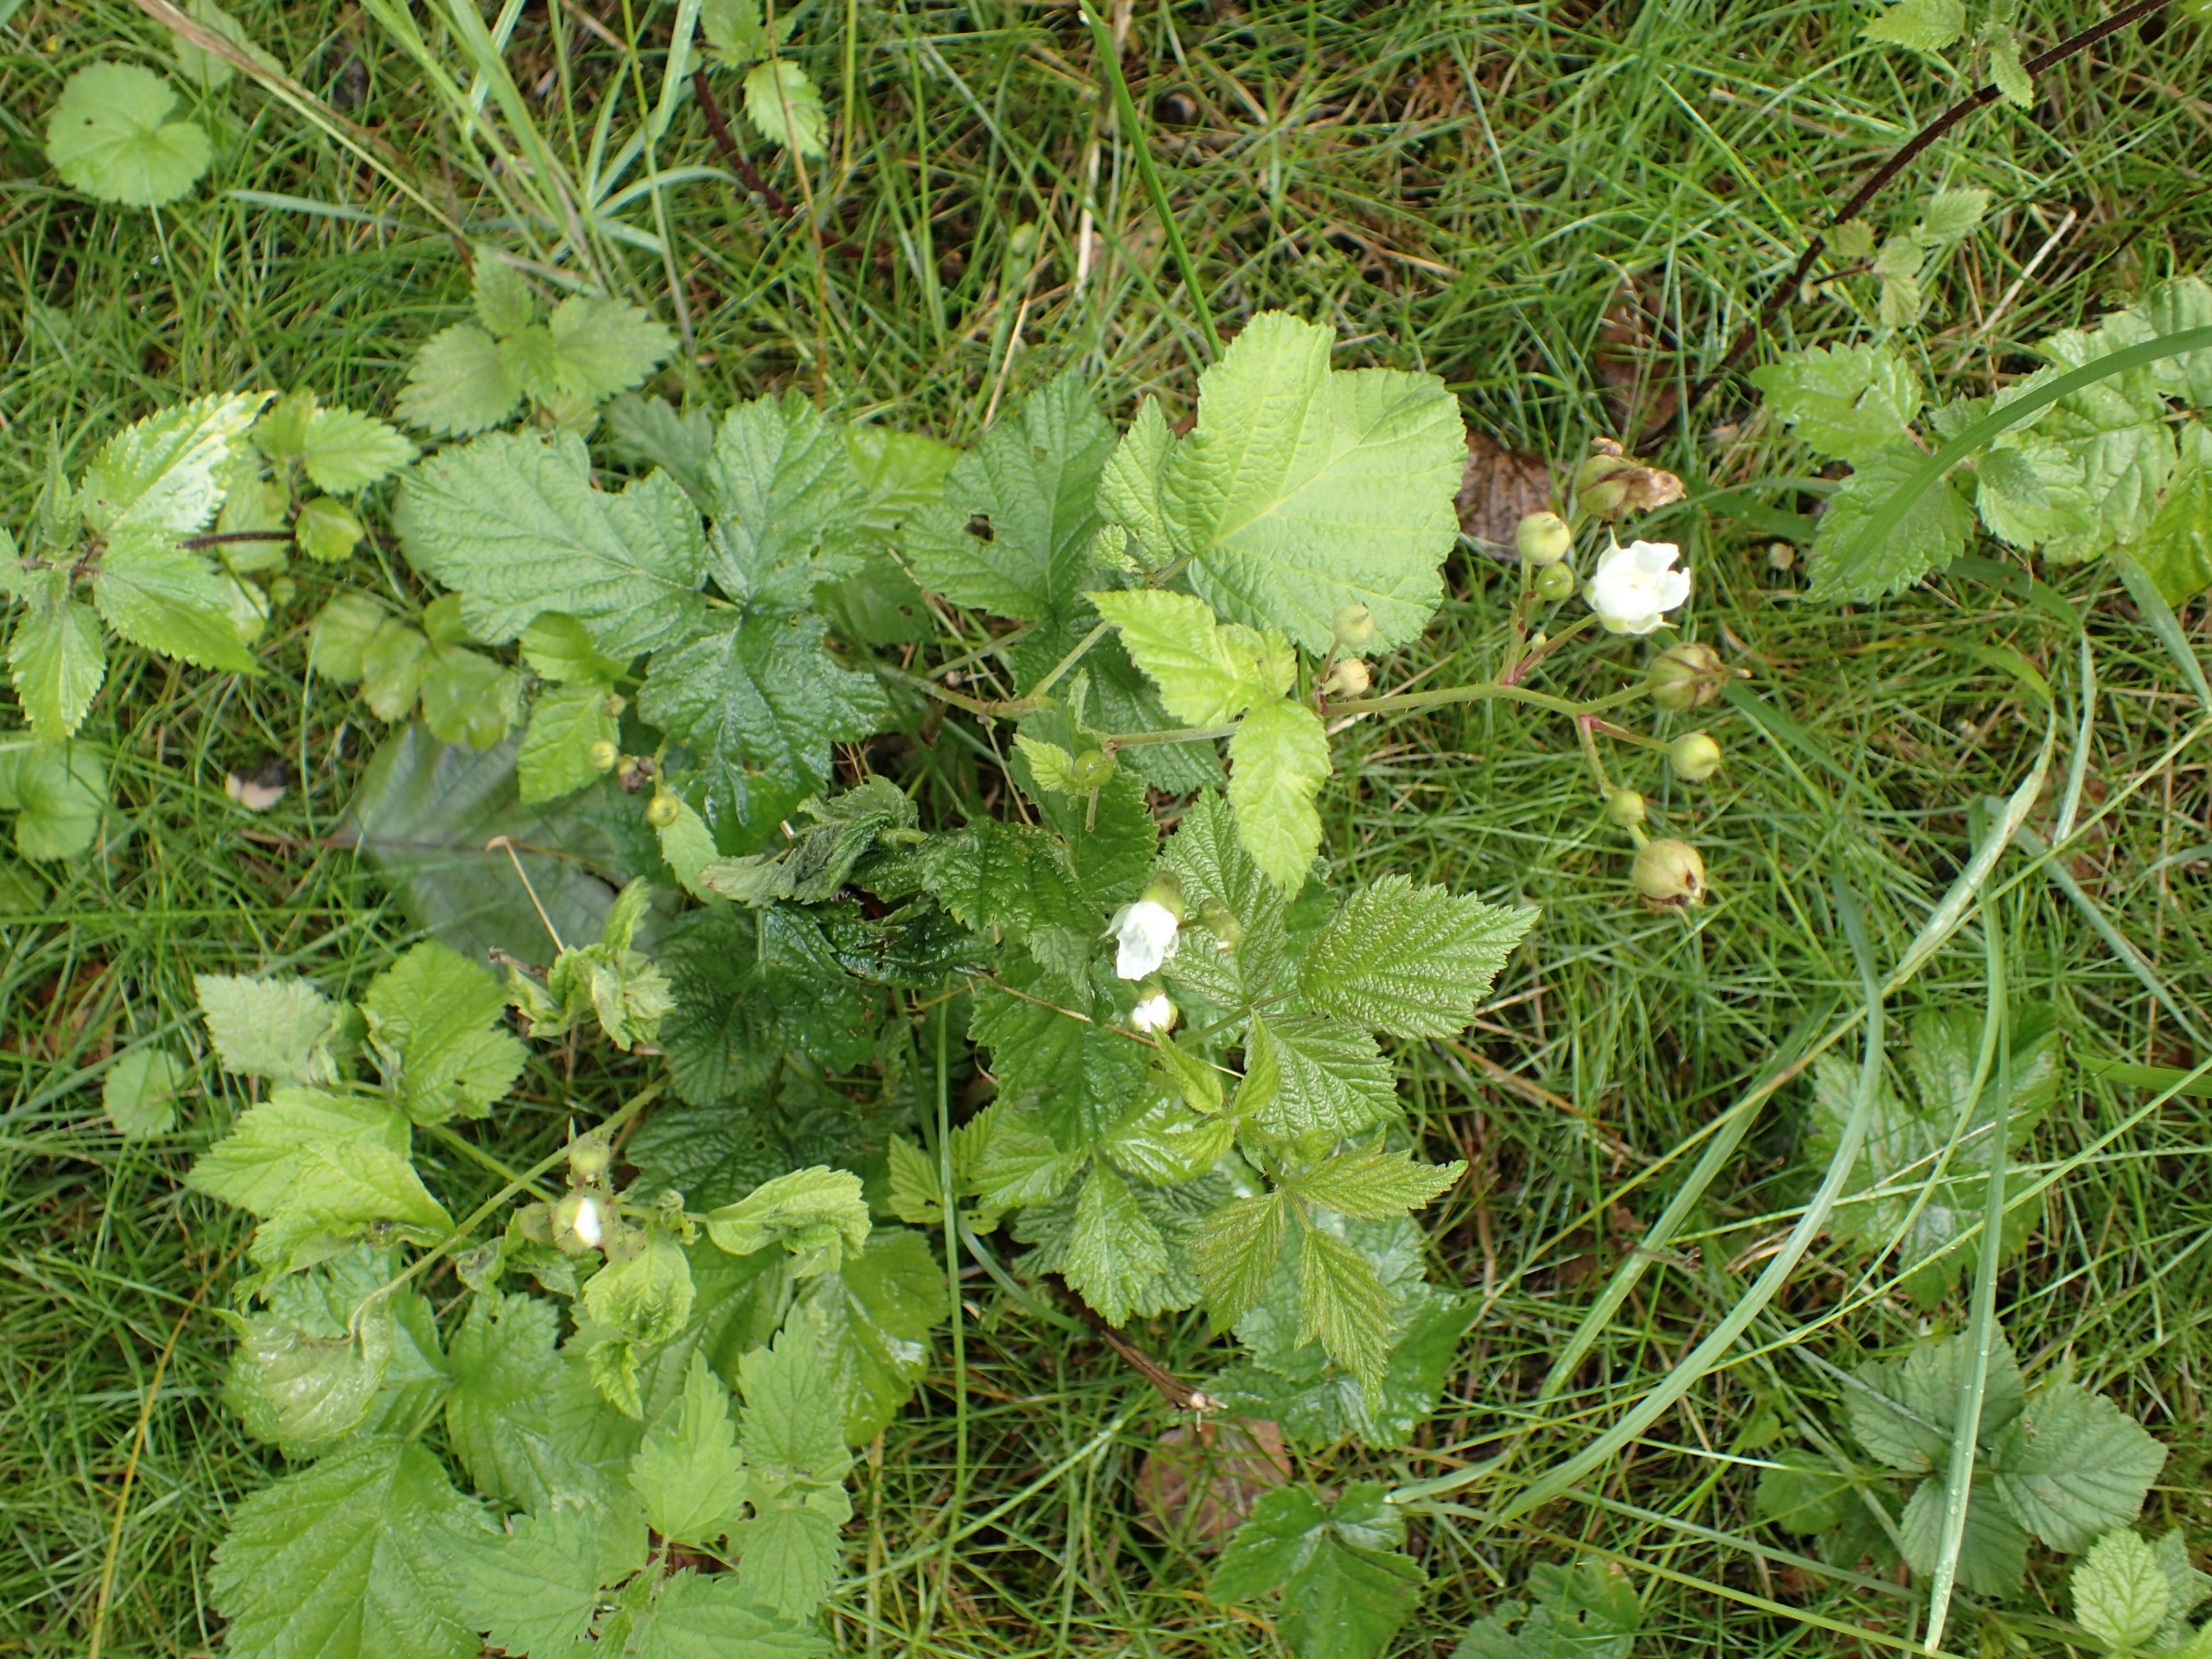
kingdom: Plantae
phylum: Tracheophyta
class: Magnoliopsida
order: Rosales
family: Rosaceae
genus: Rubus
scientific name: Rubus caesius
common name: Korbær
